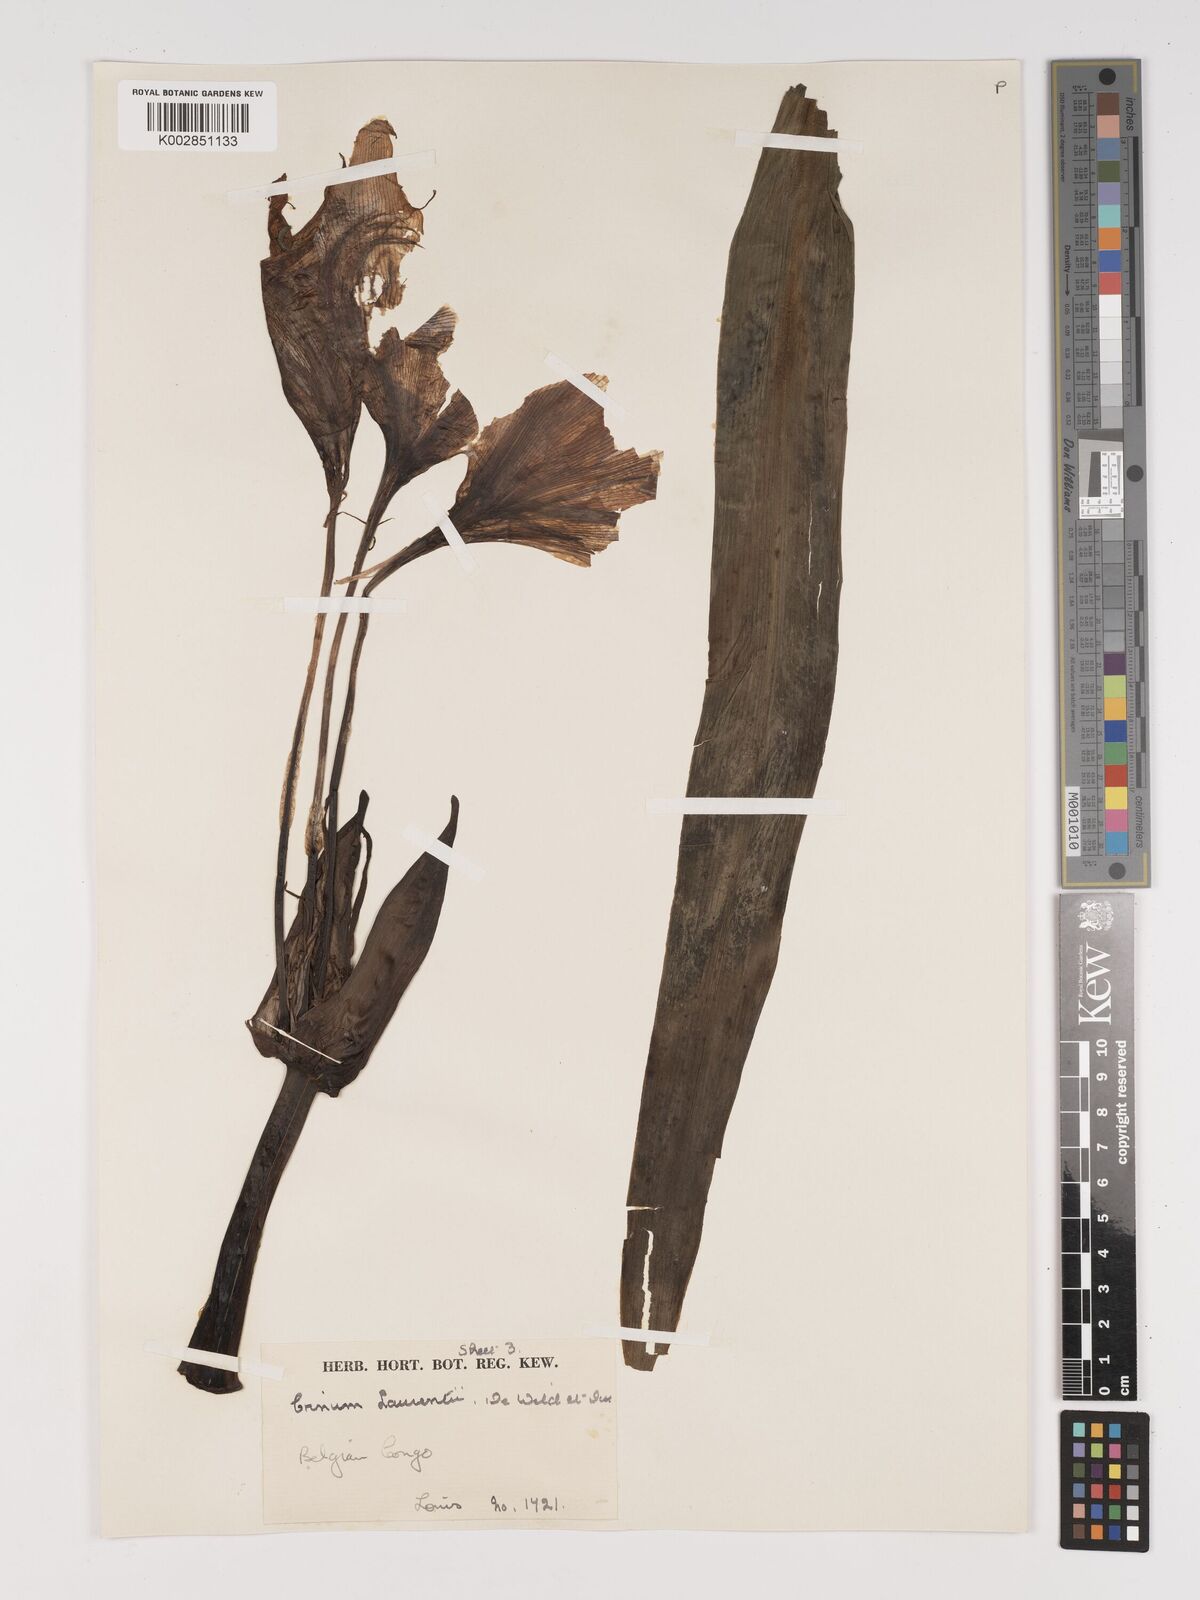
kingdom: Plantae
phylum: Tracheophyta
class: Liliopsida
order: Asparagales
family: Amaryllidaceae
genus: Crinum
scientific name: Crinum jagus
